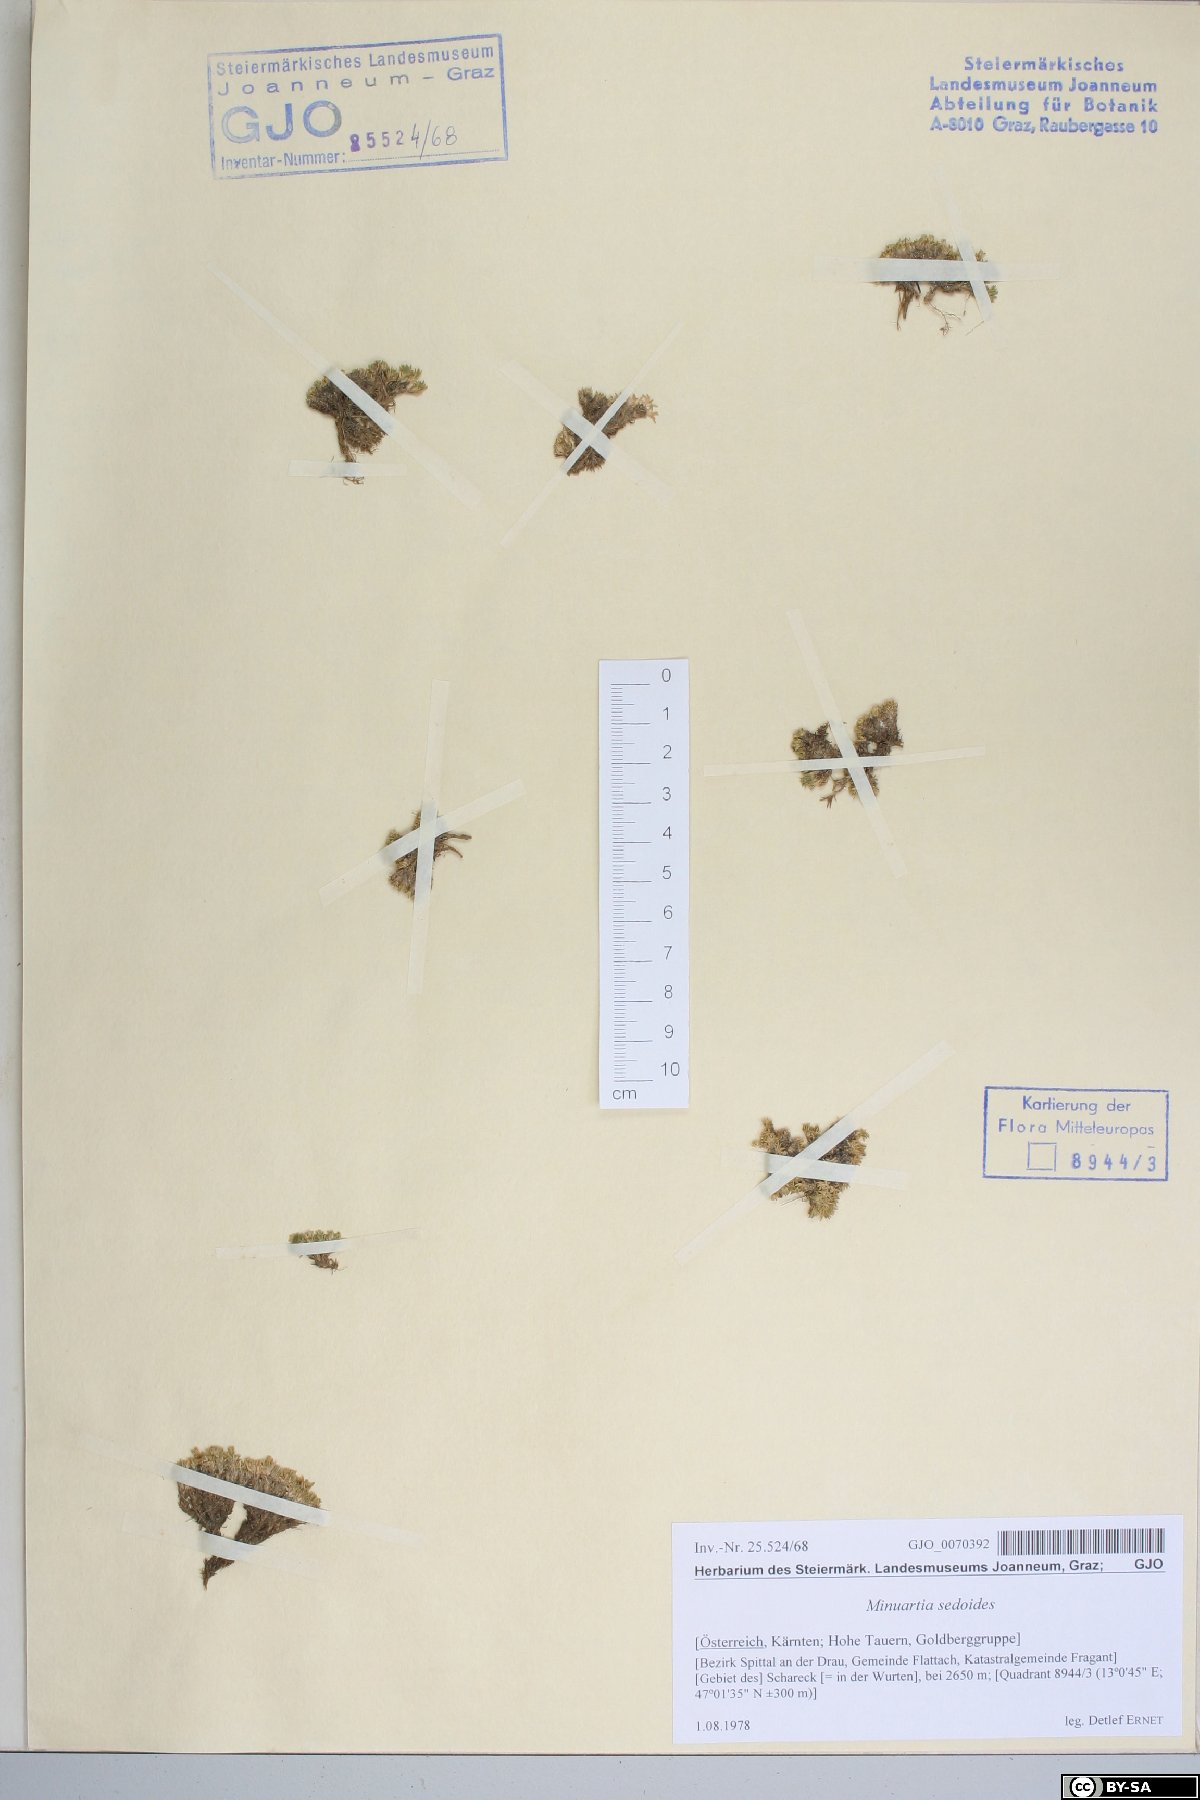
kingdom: Plantae
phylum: Tracheophyta
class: Magnoliopsida
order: Caryophyllales
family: Caryophyllaceae
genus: Cherleria
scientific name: Cherleria sedoides
